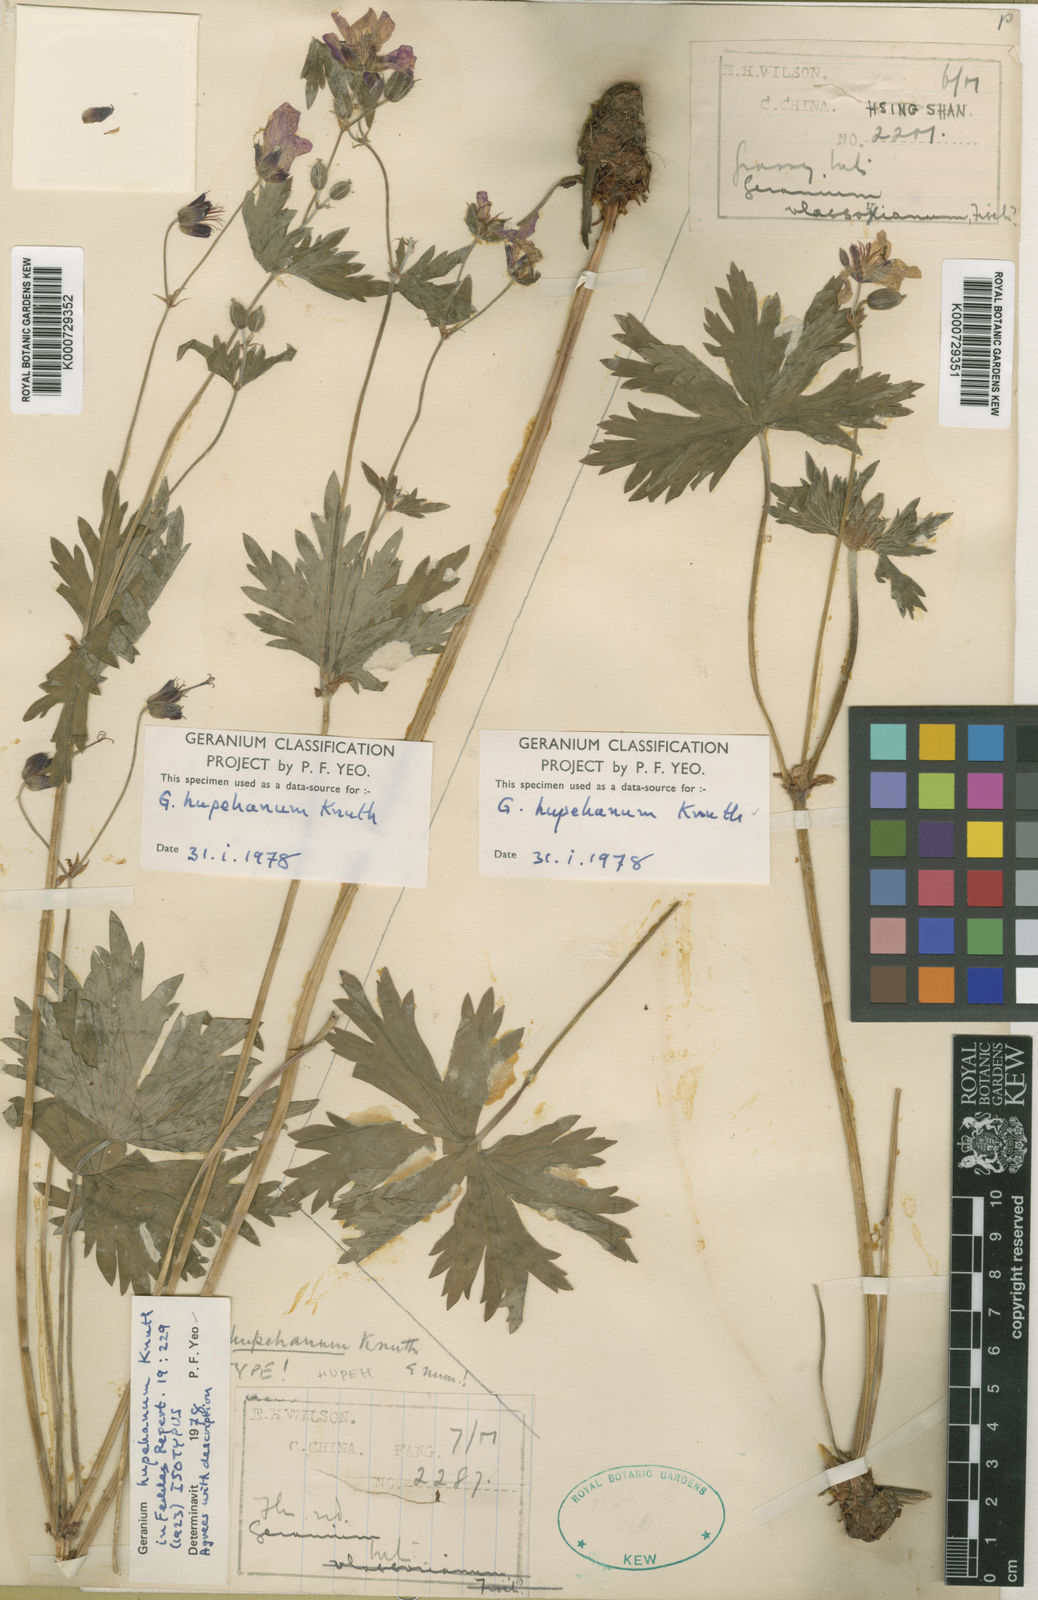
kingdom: Plantae
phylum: Tracheophyta
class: Magnoliopsida
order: Geraniales
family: Geraniaceae
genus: Geranium
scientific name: Geranium rosthornii
